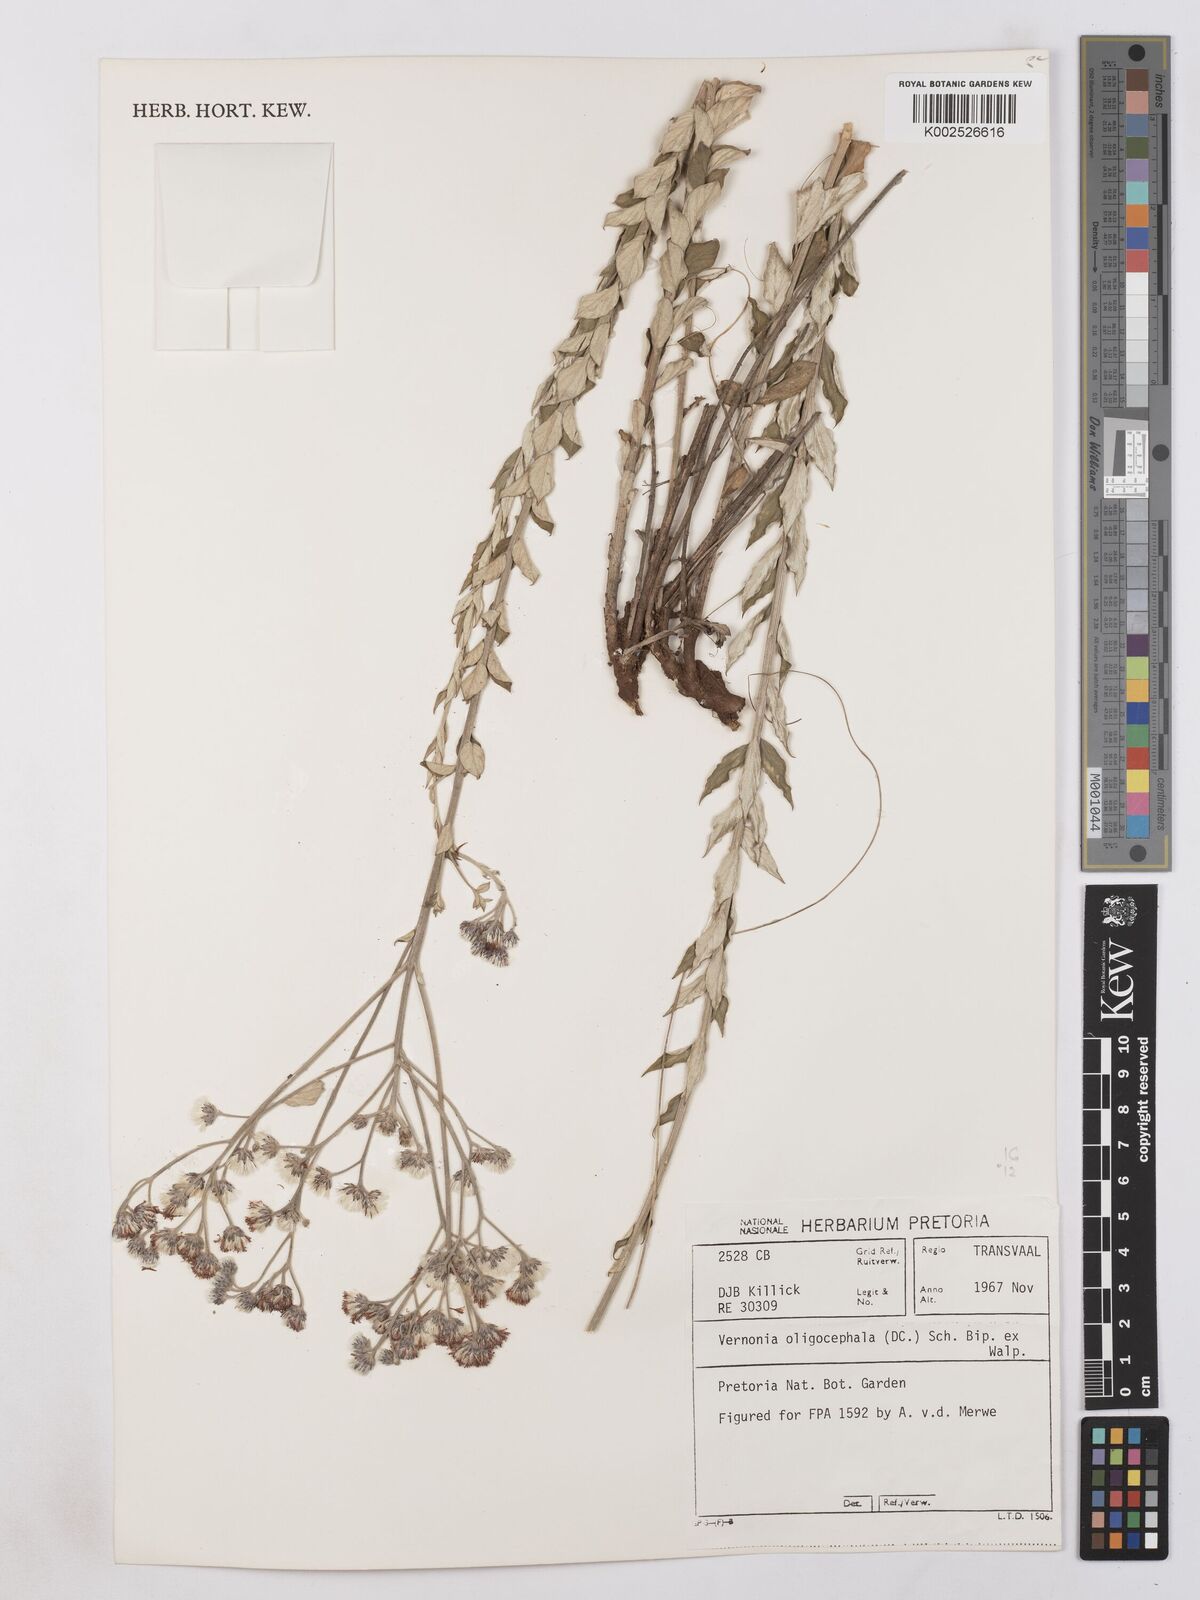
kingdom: Plantae
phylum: Tracheophyta
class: Magnoliopsida
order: Asterales
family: Asteraceae
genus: Hilliardiella
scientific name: Hilliardiella oligocephala
